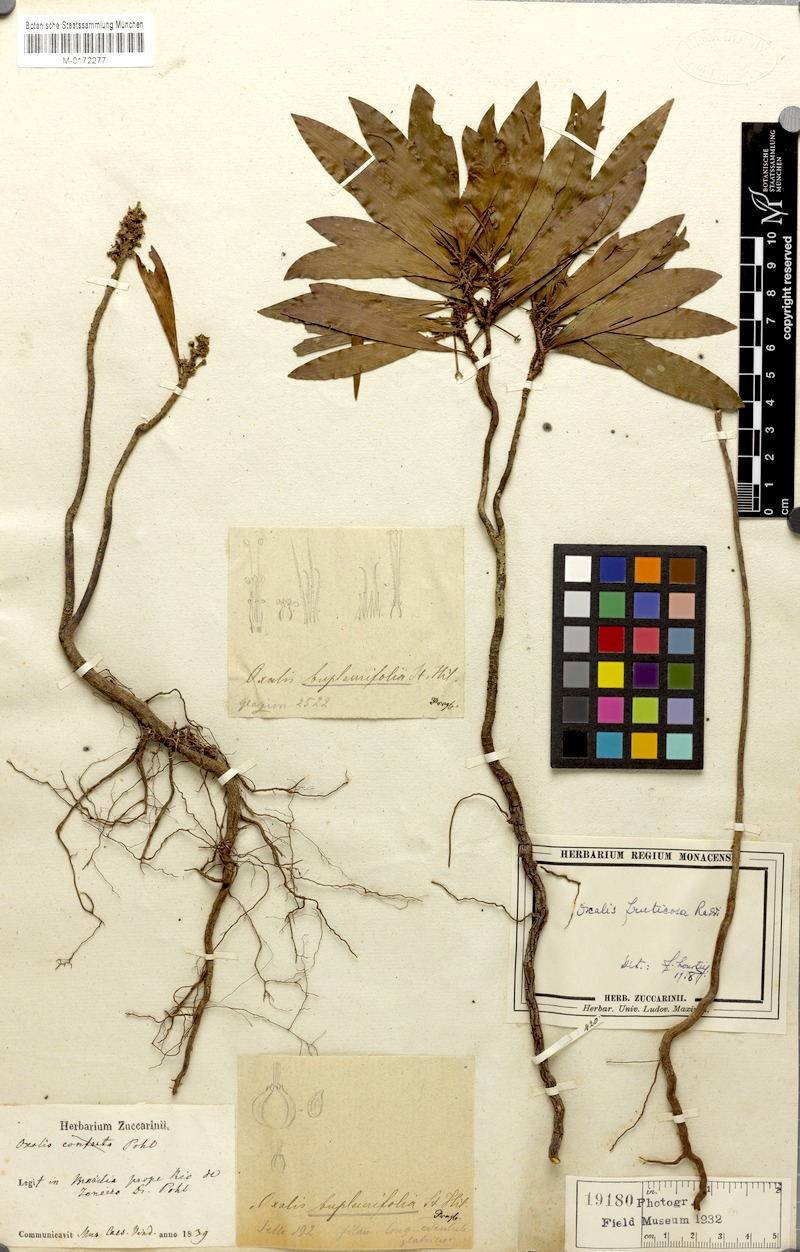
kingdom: Plantae
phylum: Tracheophyta
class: Magnoliopsida
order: Oxalidales
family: Oxalidaceae
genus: Oxalis
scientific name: Oxalis peruviana
